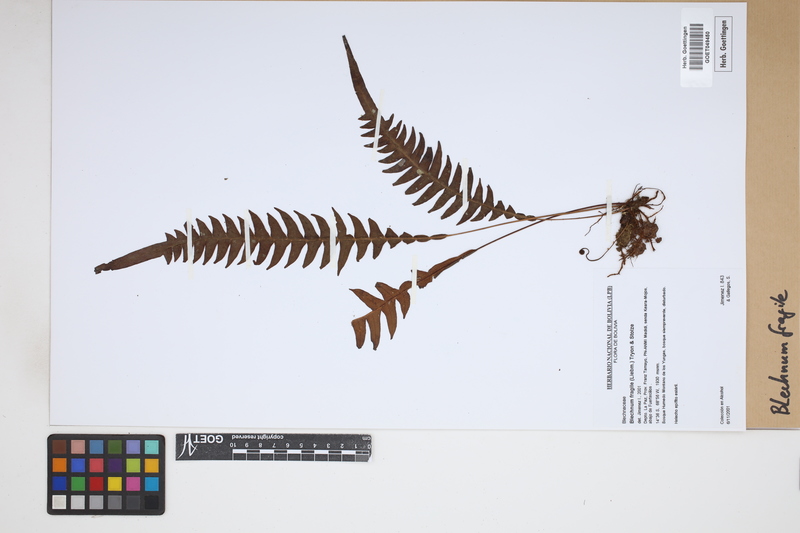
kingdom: Plantae
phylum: Tracheophyta
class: Polypodiopsida
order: Polypodiales
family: Blechnaceae
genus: Lomaridium
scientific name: Lomaridium fragile
